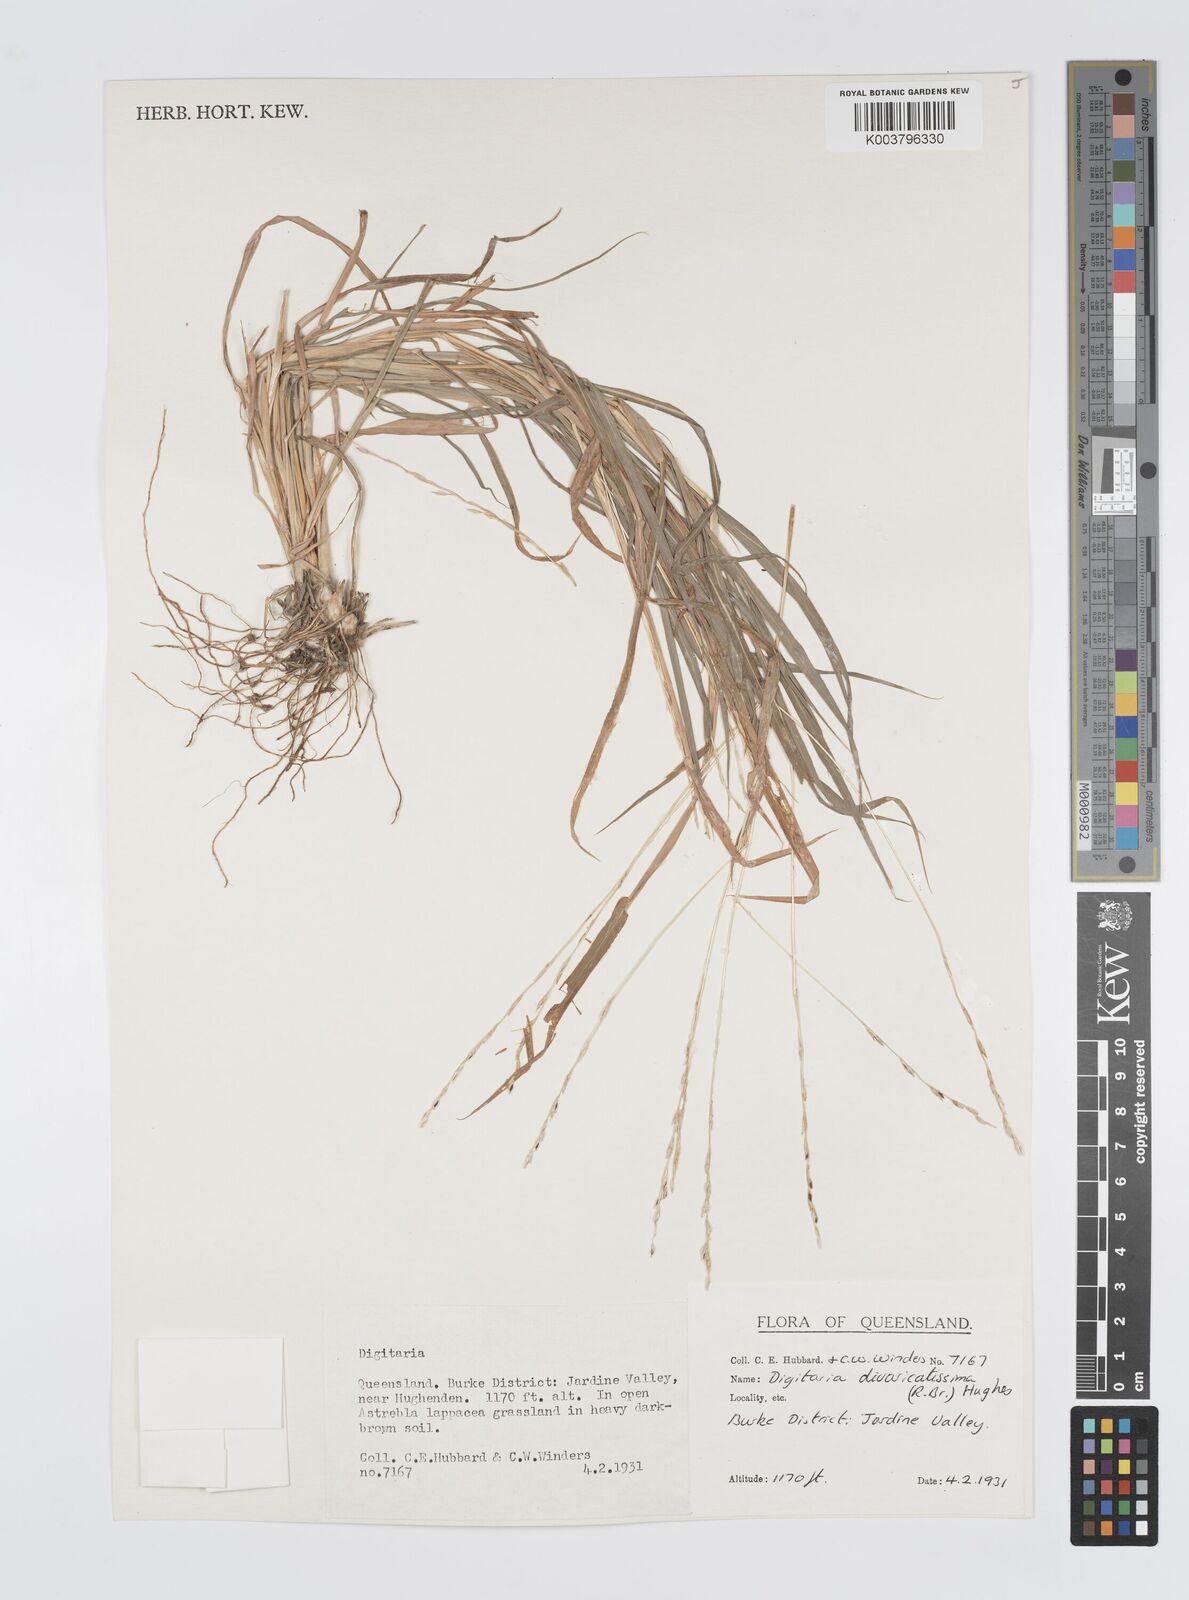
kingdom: Plantae
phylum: Tracheophyta
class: Liliopsida
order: Poales
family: Poaceae
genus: Digitaria
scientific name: Digitaria spec
